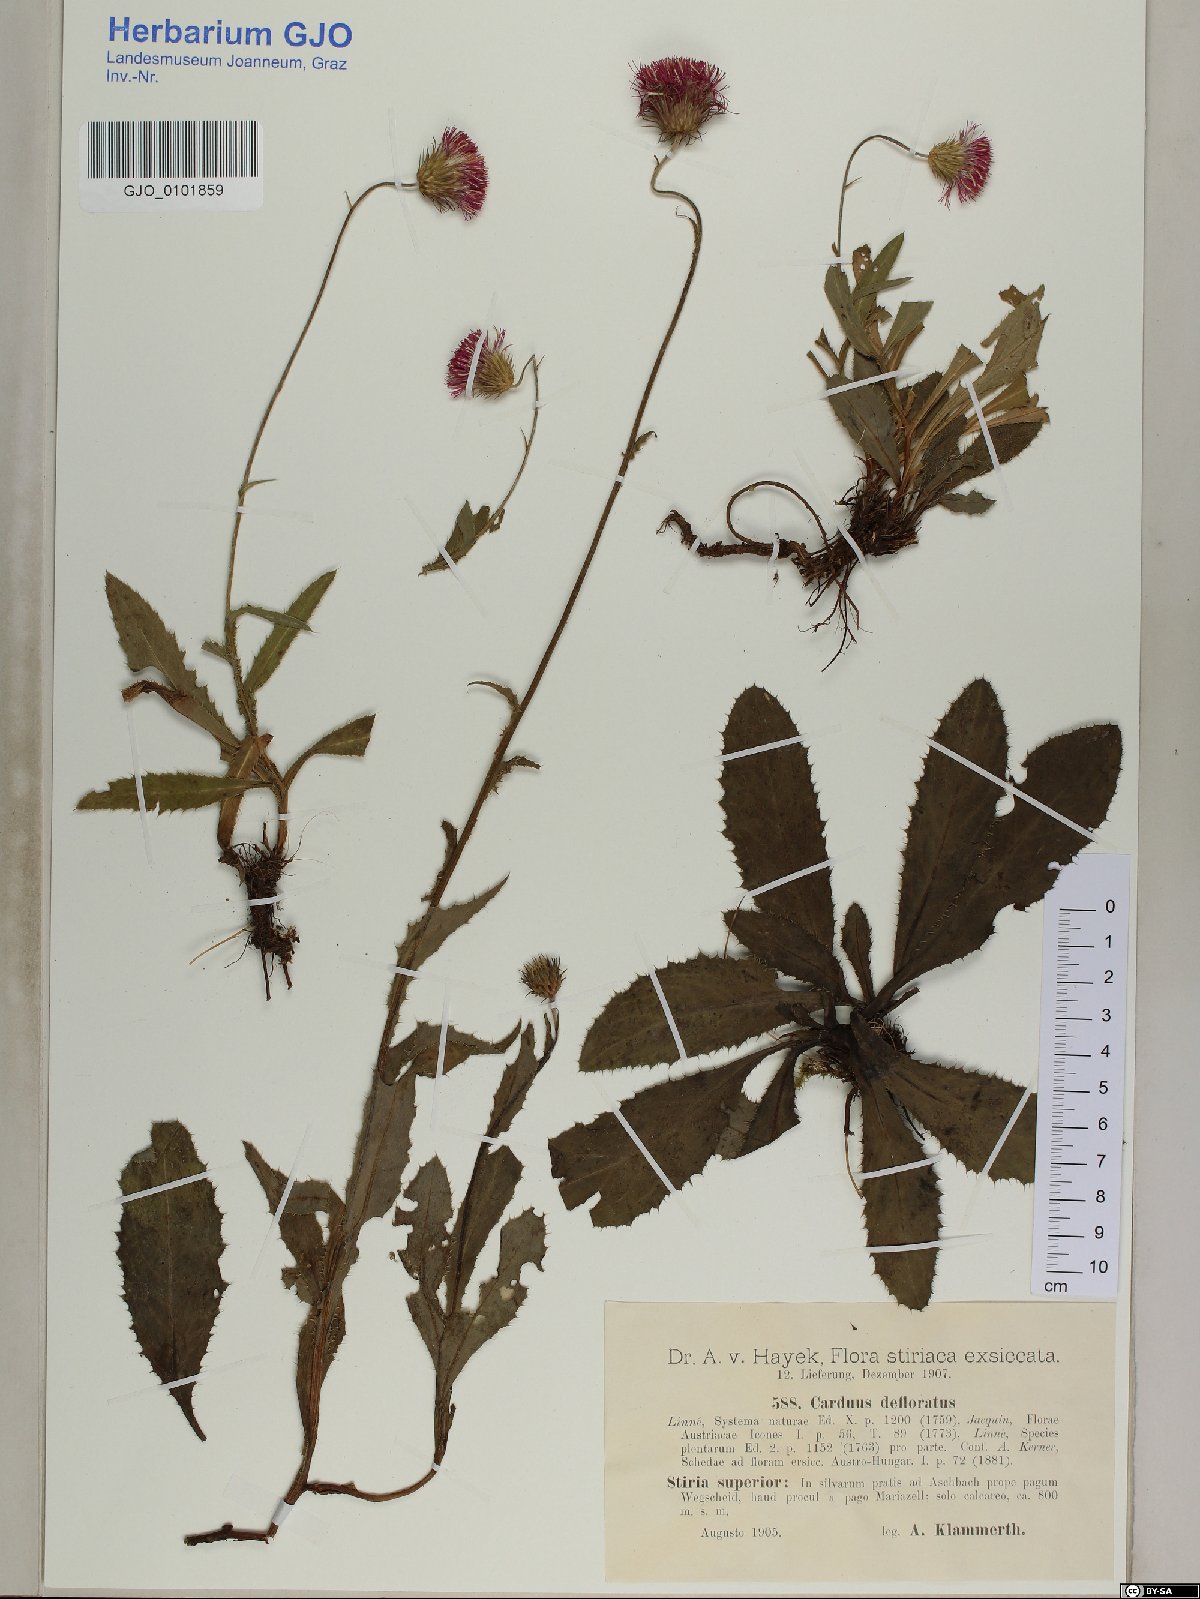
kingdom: Plantae
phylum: Tracheophyta
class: Magnoliopsida
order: Asterales
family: Asteraceae
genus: Carduus
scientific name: Carduus defloratus
